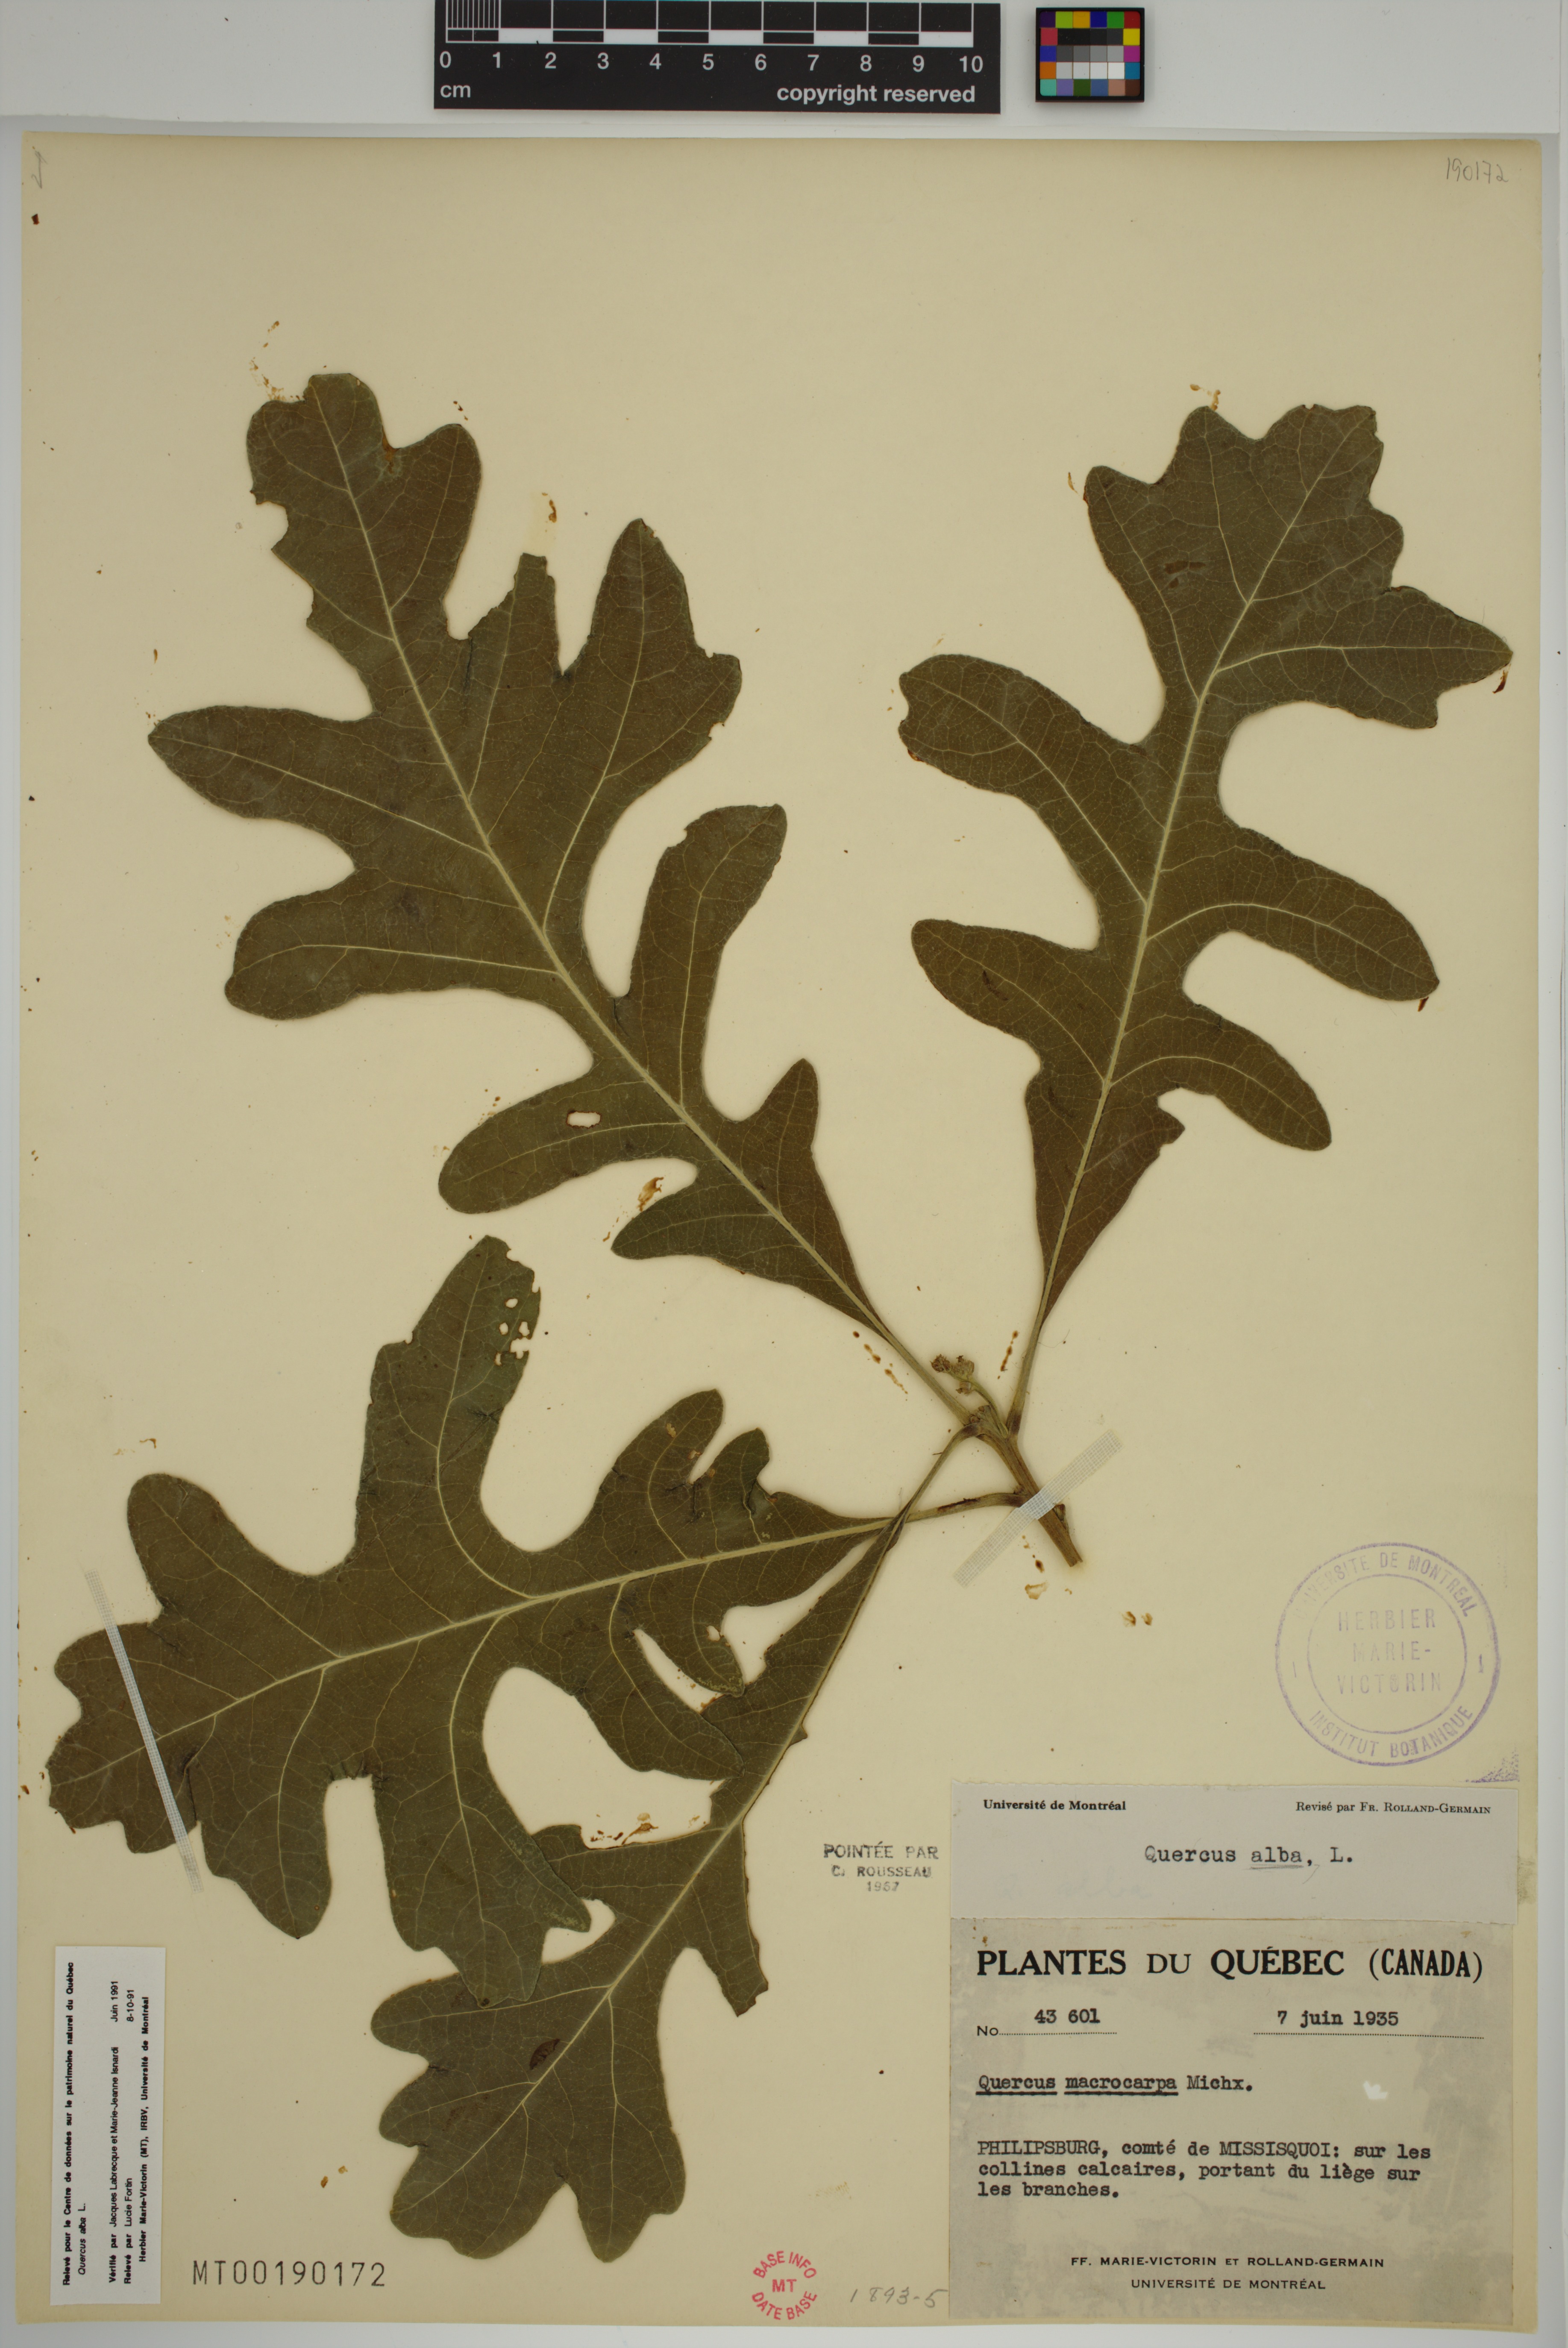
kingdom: Plantae
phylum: Tracheophyta
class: Magnoliopsida
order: Fagales
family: Fagaceae
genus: Quercus
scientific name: Quercus alba
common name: White oak
